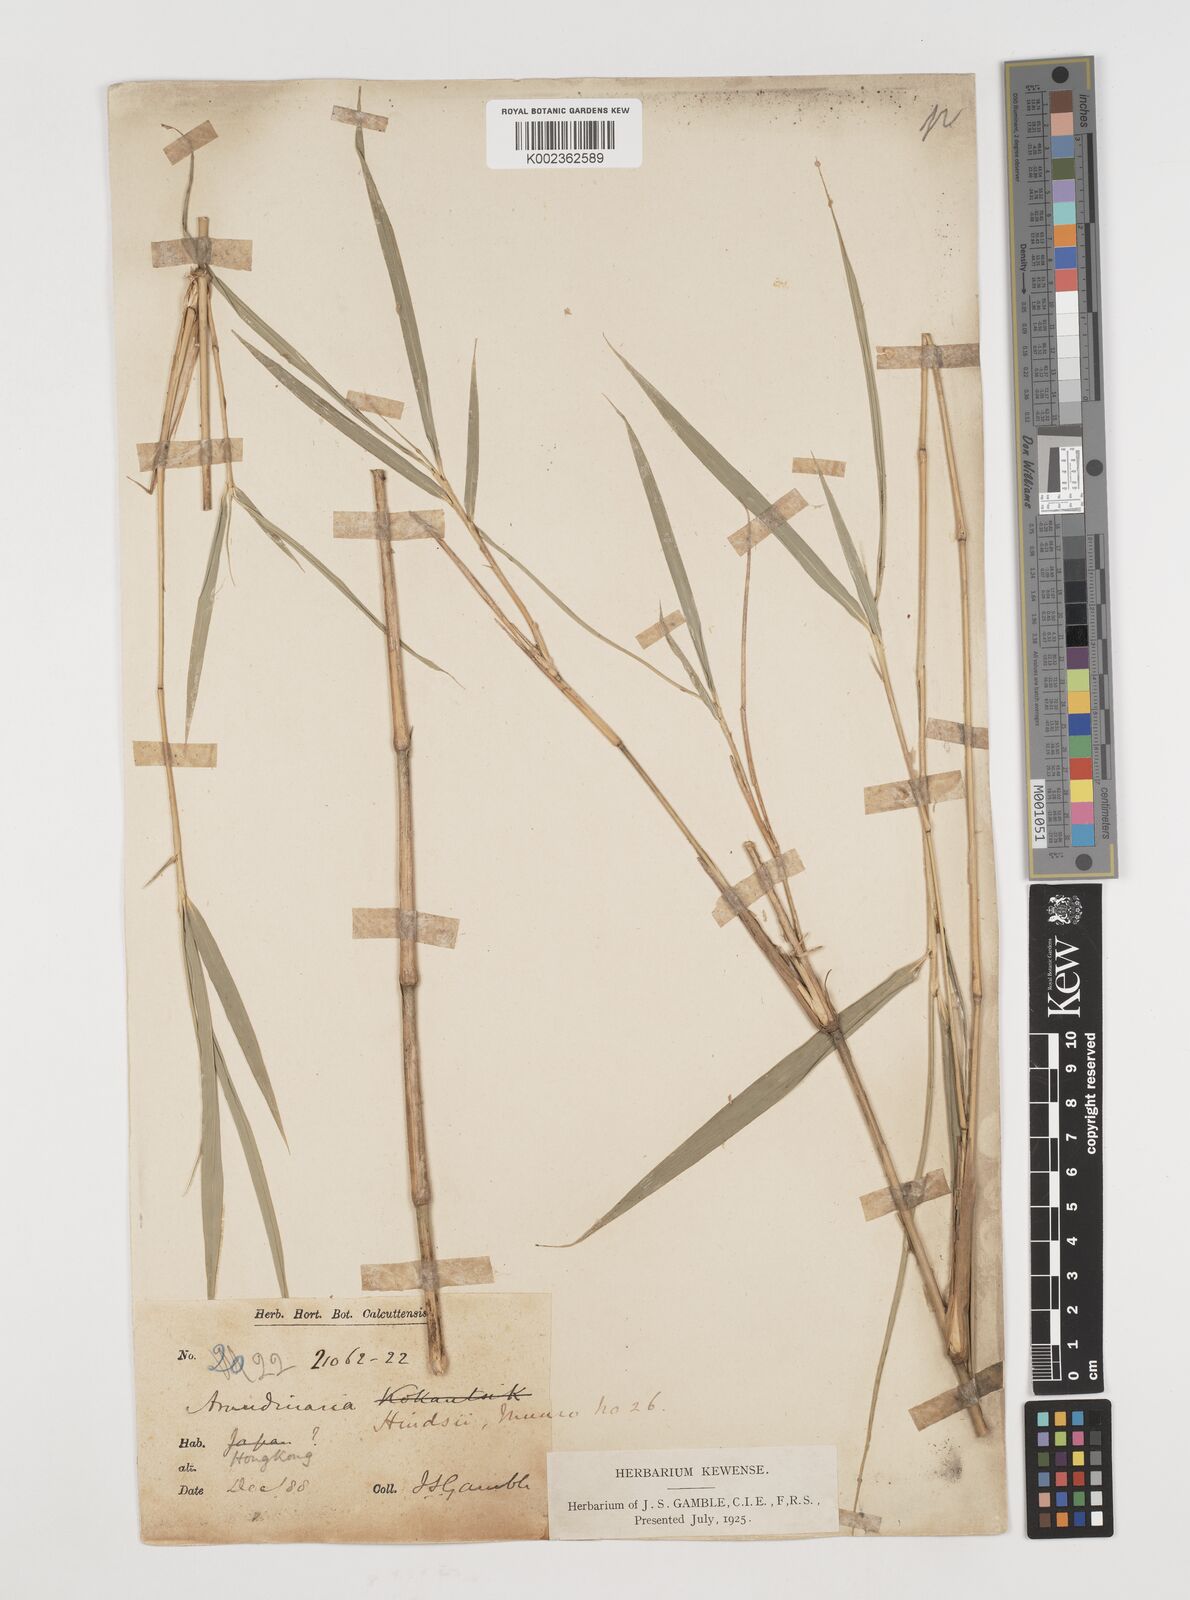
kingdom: Plantae
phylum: Tracheophyta
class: Liliopsida
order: Poales
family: Poaceae
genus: Pseudosasa
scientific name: Pseudosasa hindsii
